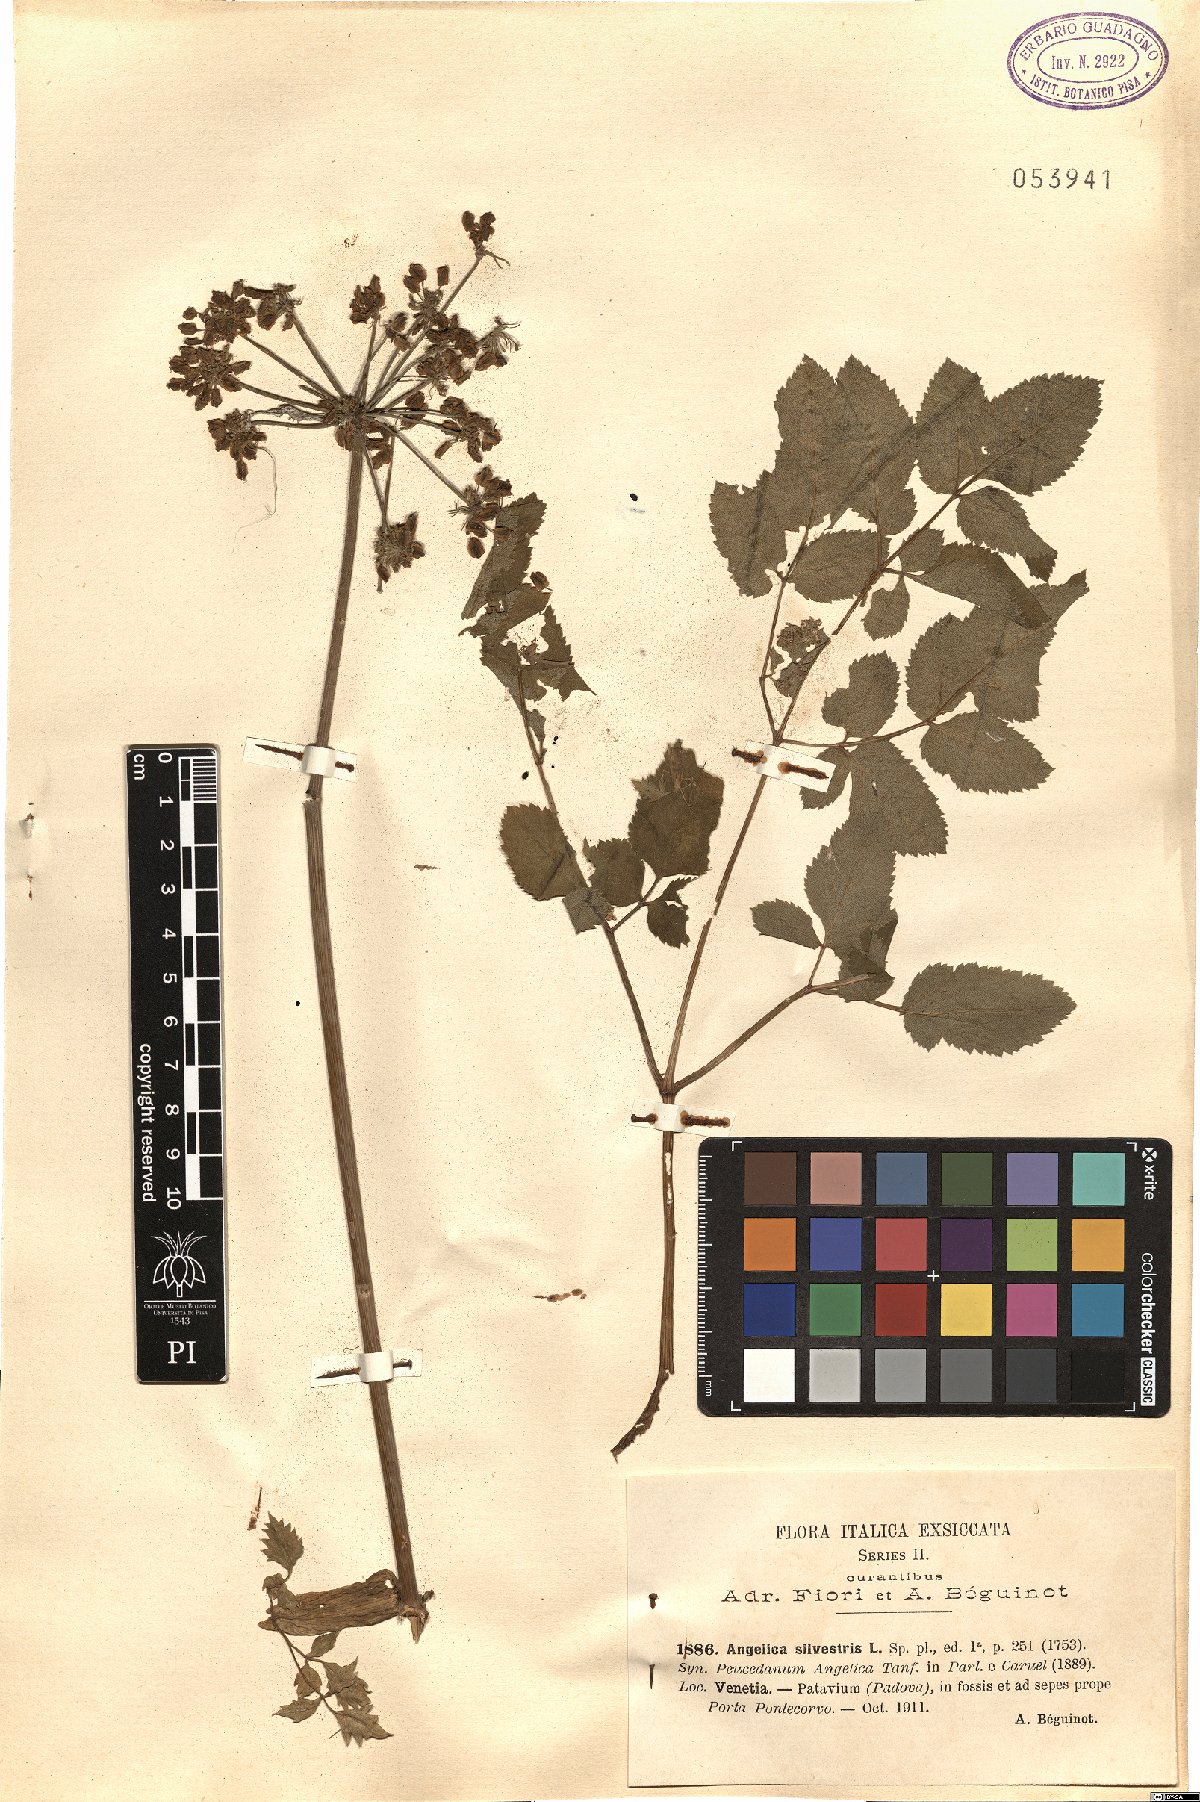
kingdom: Plantae
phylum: Tracheophyta
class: Magnoliopsida
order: Apiales
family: Apiaceae
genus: Angelica
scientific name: Angelica sylvestris
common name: Wild angelica
